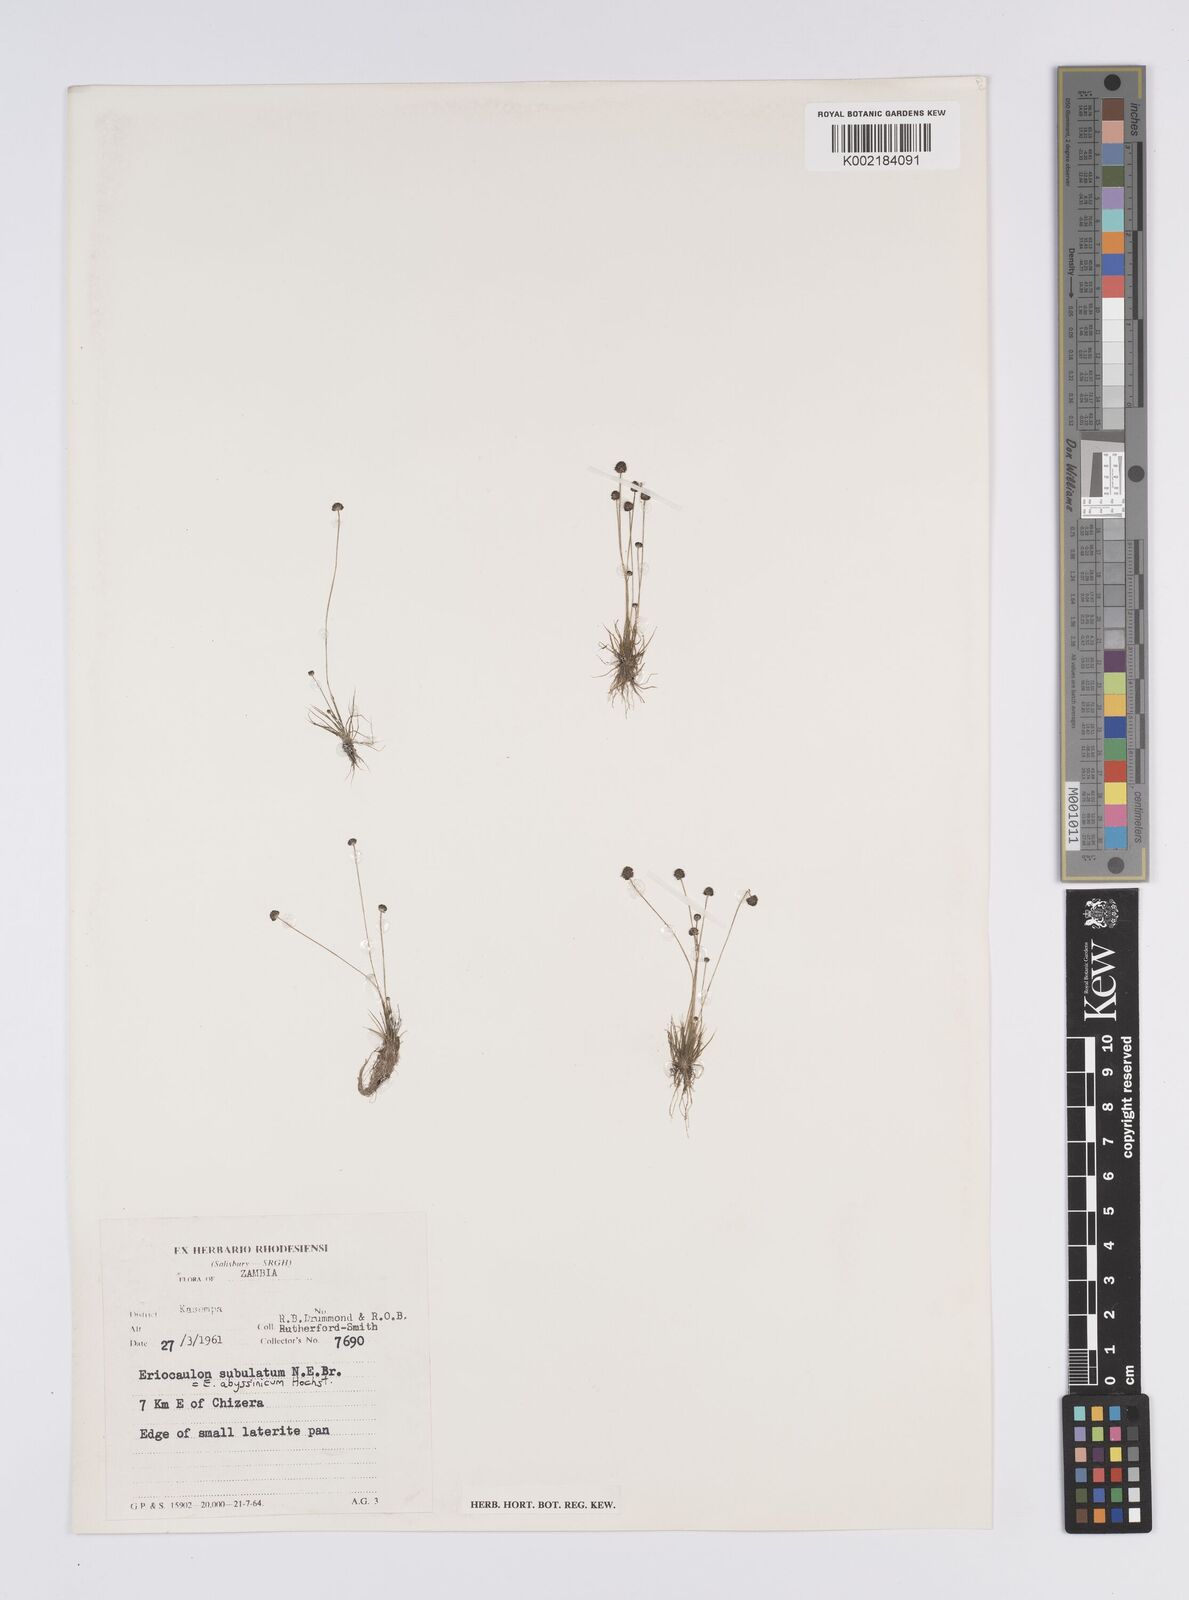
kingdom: Plantae
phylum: Tracheophyta
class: Liliopsida
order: Poales
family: Eriocaulaceae
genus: Eriocaulon
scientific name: Eriocaulon abyssinicum
